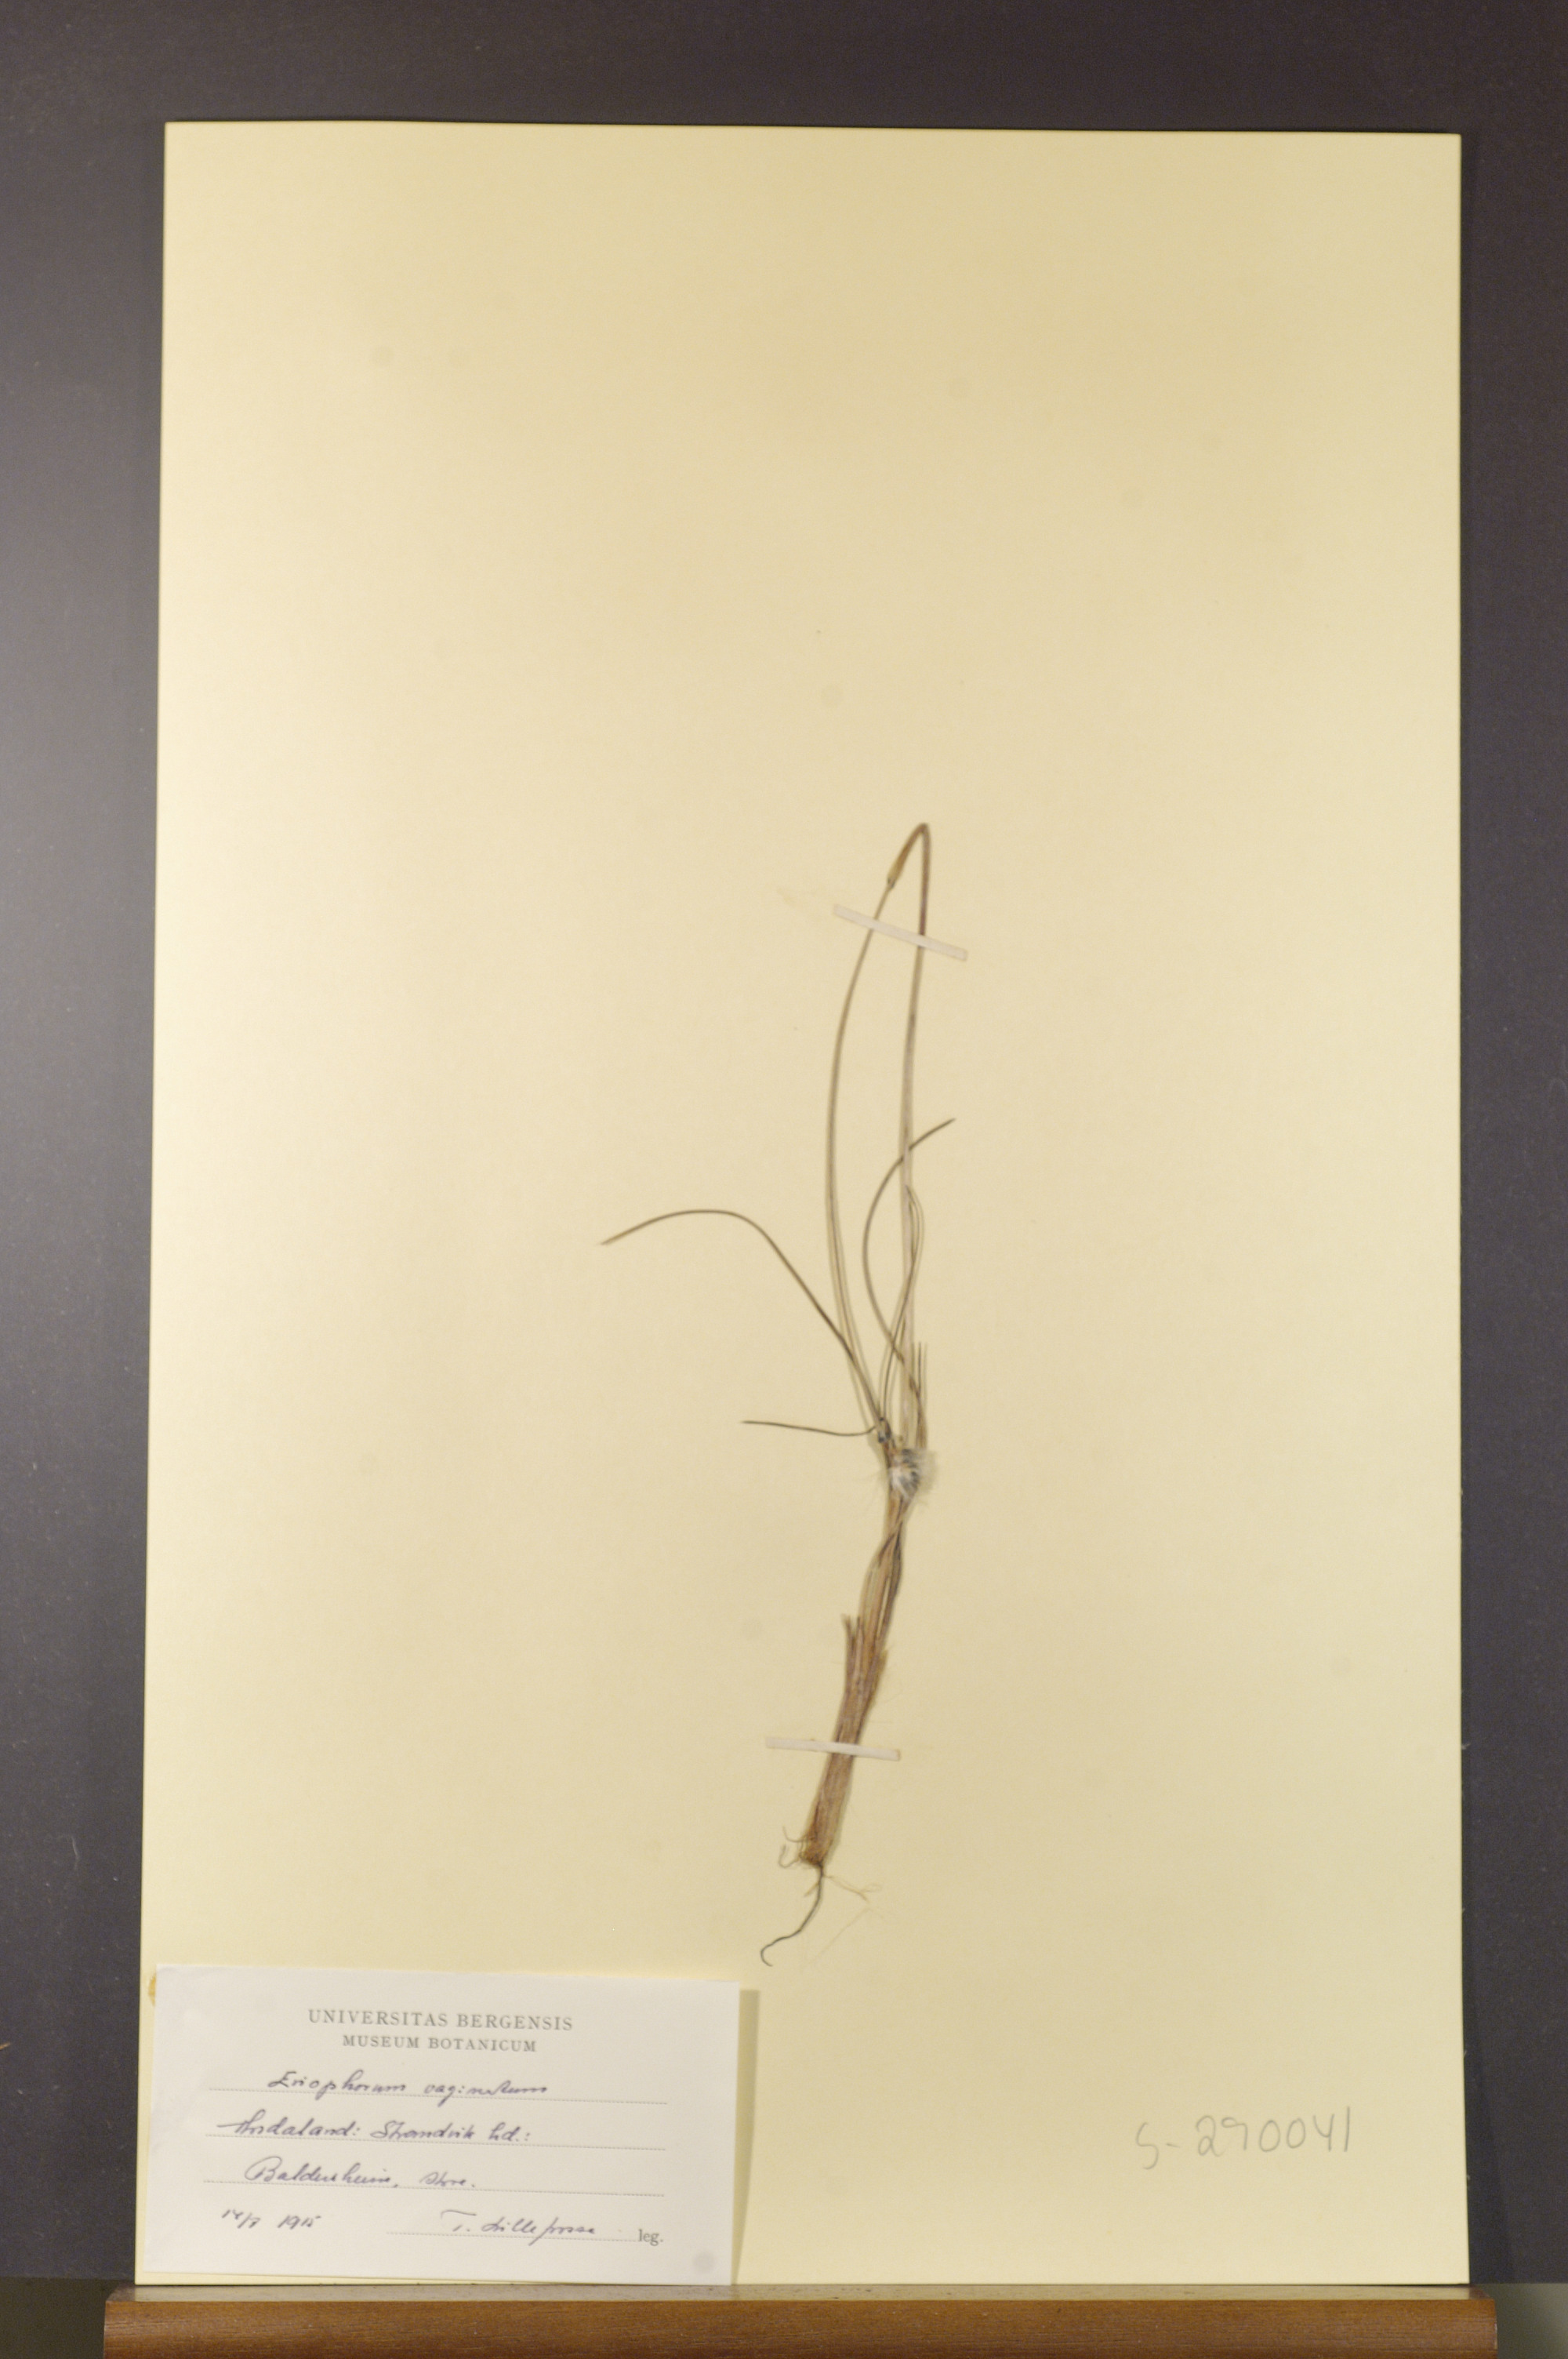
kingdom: Plantae
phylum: Tracheophyta
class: Liliopsida
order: Poales
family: Cyperaceae
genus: Eriophorum
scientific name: Eriophorum vaginatum
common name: Hare's-tail cottongrass
